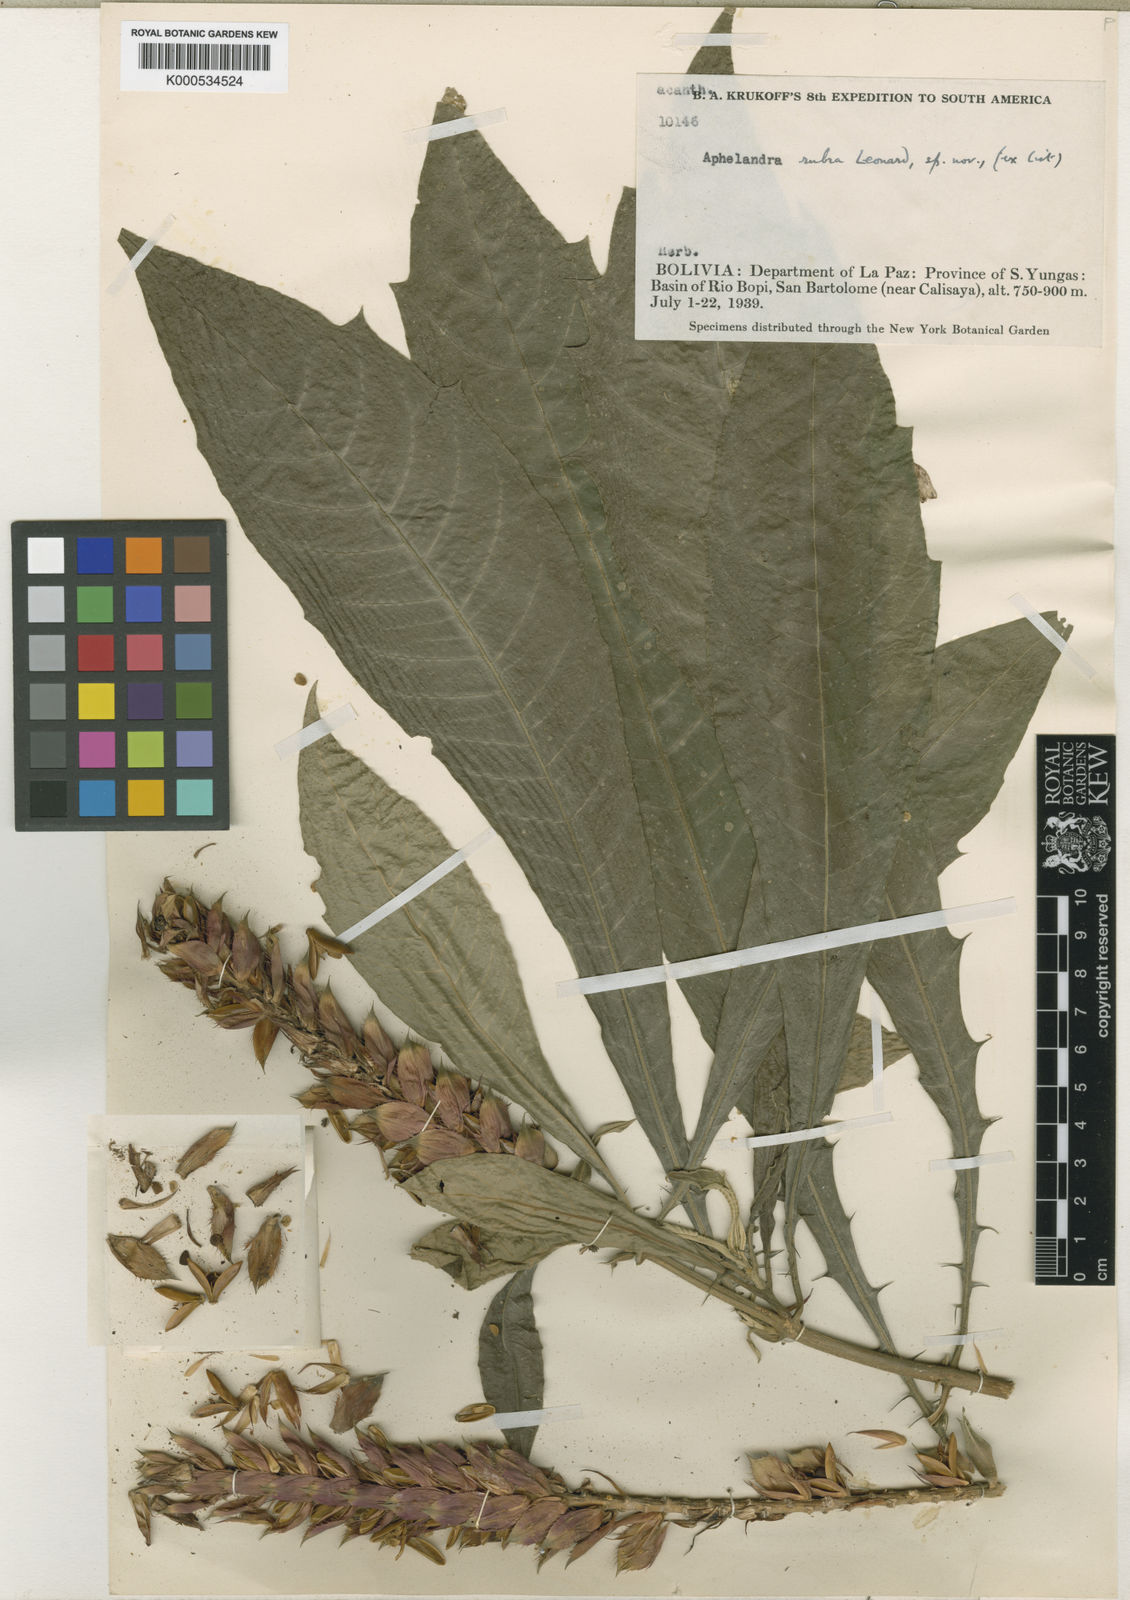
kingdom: Plantae
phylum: Tracheophyta
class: Magnoliopsida
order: Lamiales
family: Acanthaceae
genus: Aphelandra
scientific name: Aphelandra
